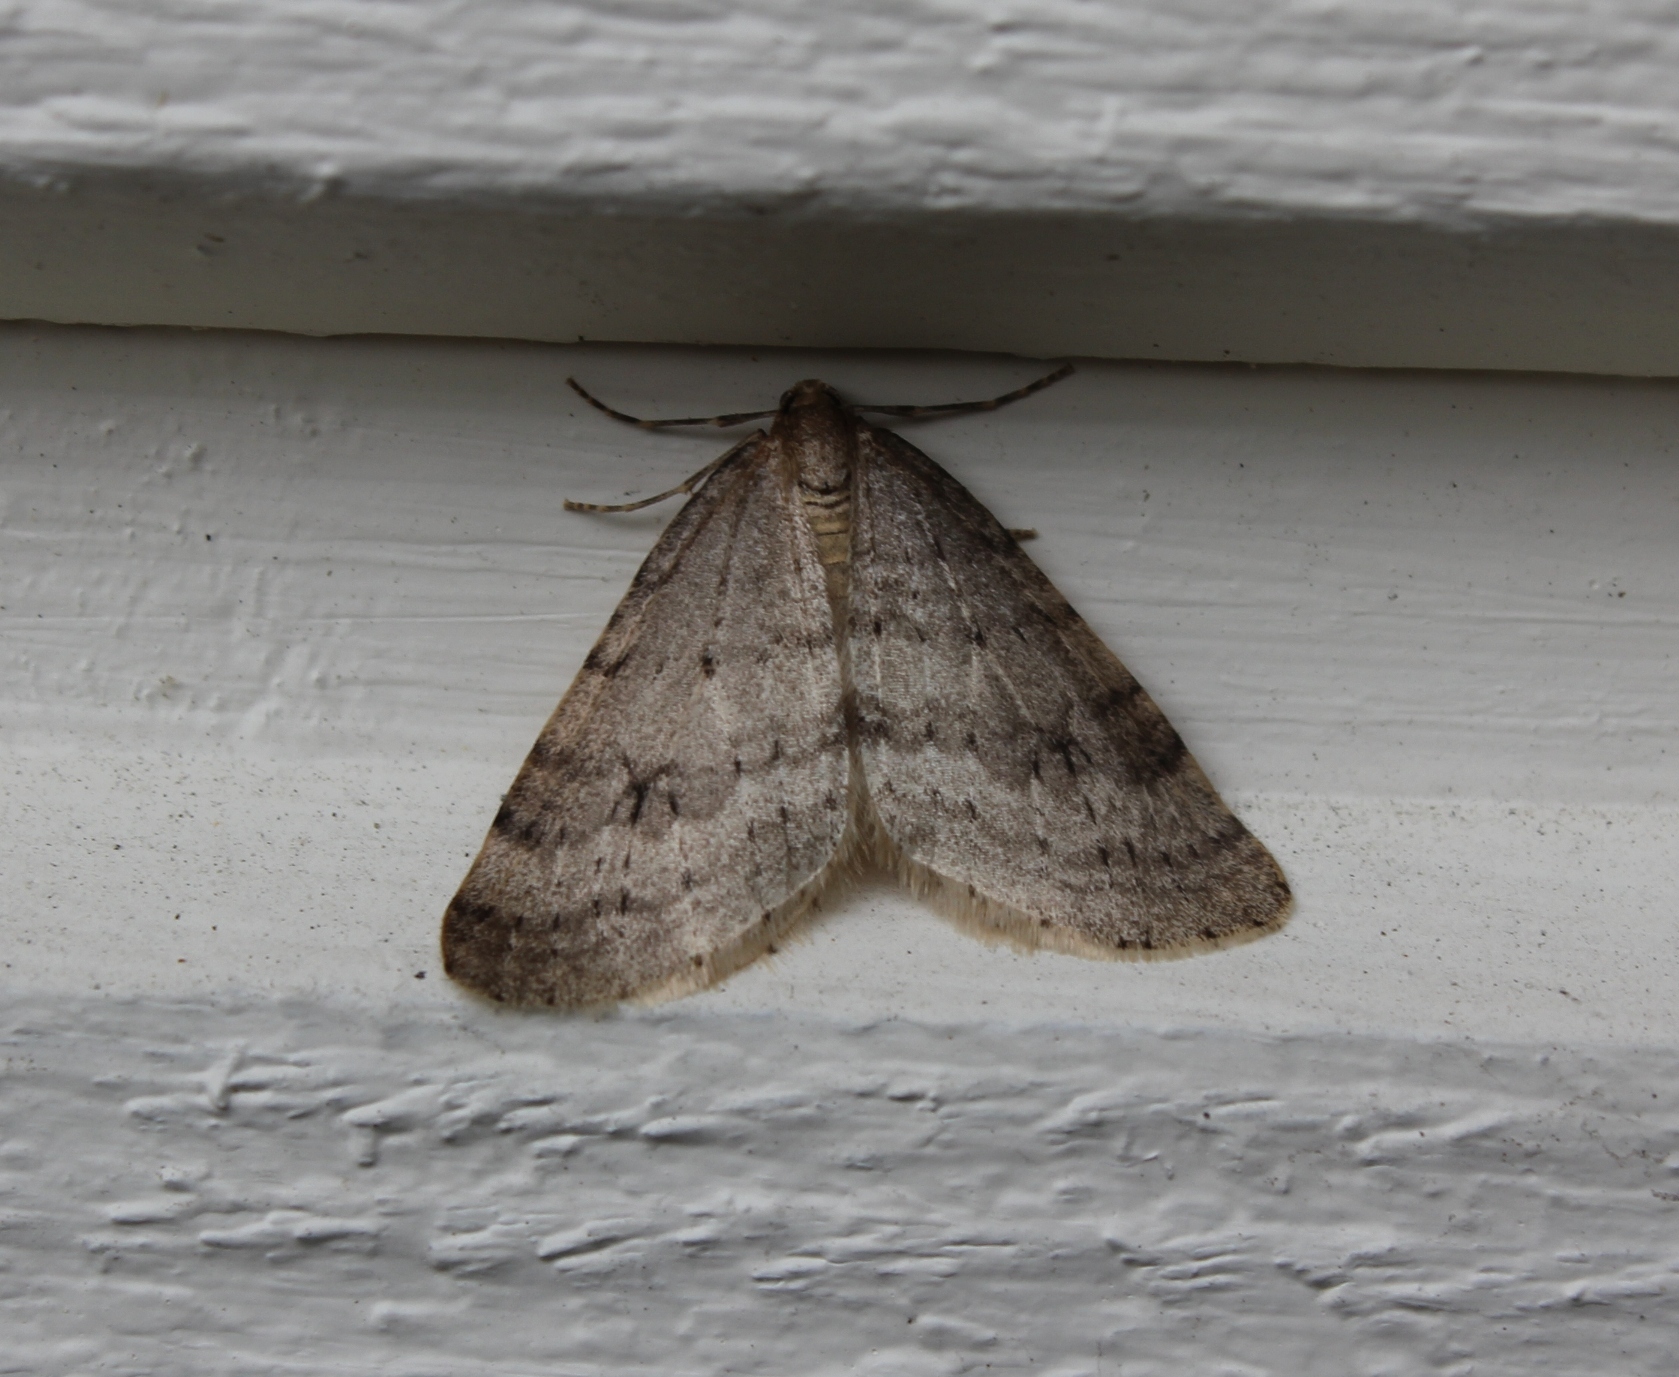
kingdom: Animalia
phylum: Arthropoda
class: Insecta
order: Lepidoptera
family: Geometridae
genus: Operophtera
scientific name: Operophtera fagata
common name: Northern winter moth
